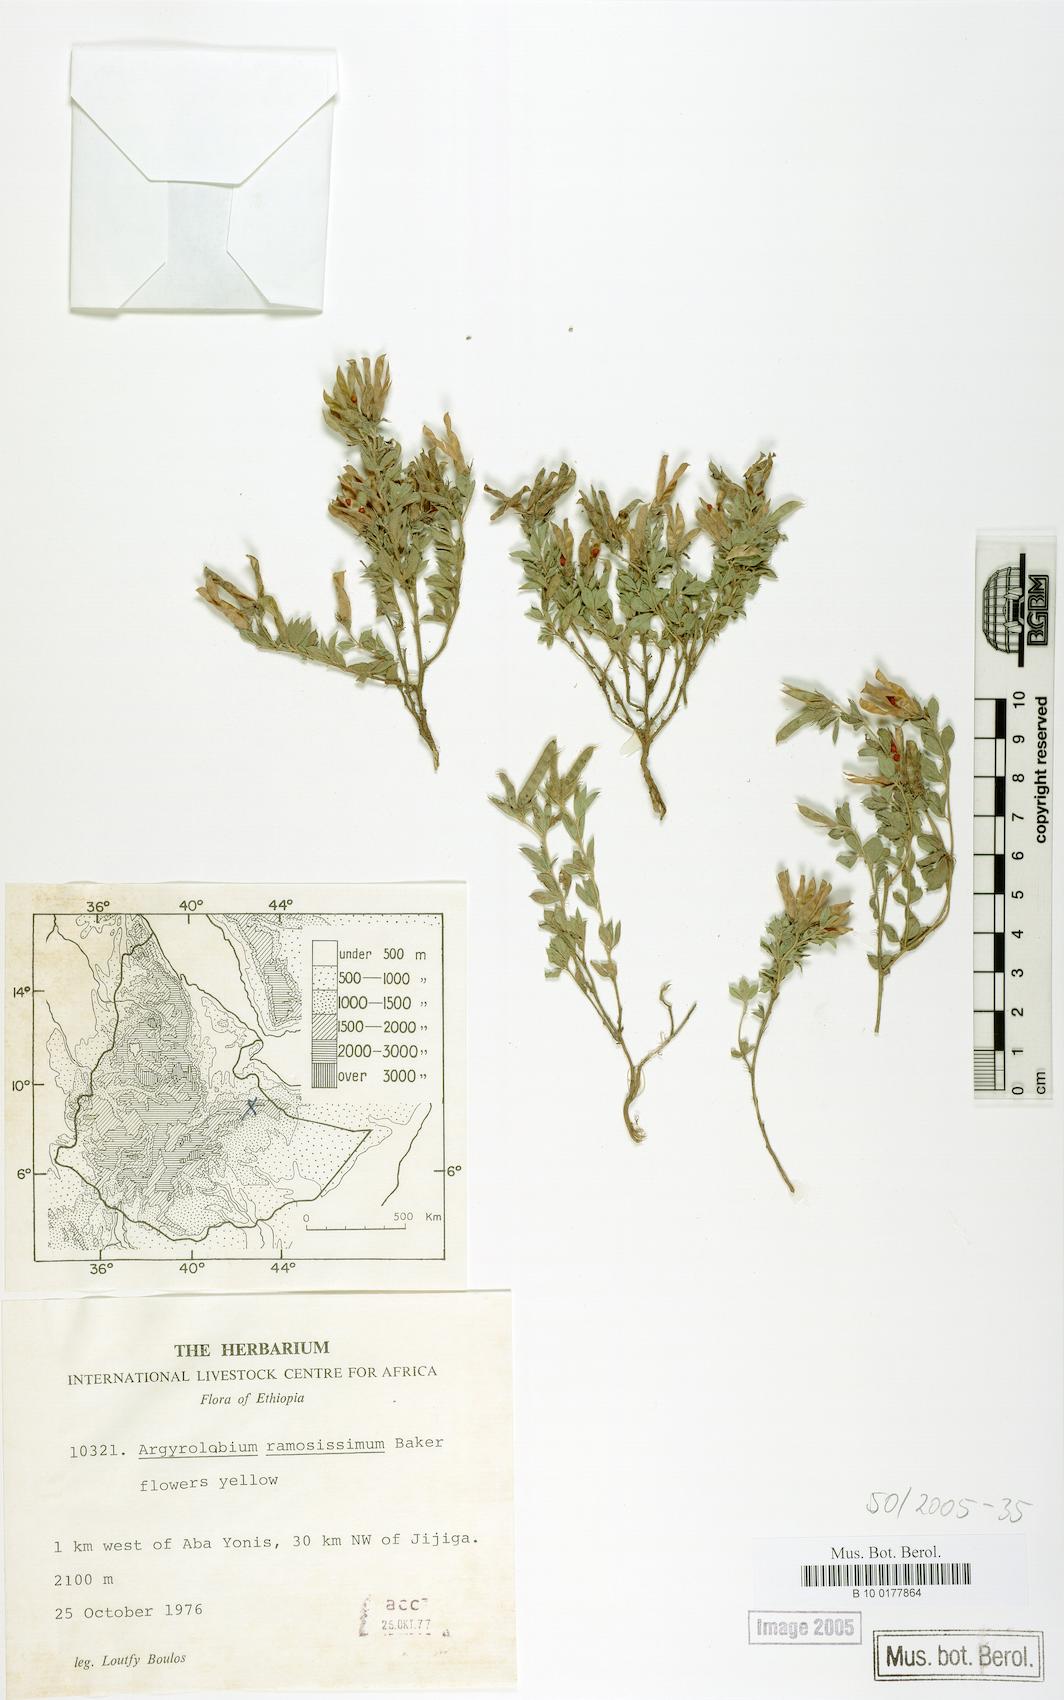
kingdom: Plantae
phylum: Tracheophyta
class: Magnoliopsida
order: Fabales
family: Fabaceae
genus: Argyrolobium
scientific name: Argyrolobium ramosissimum
